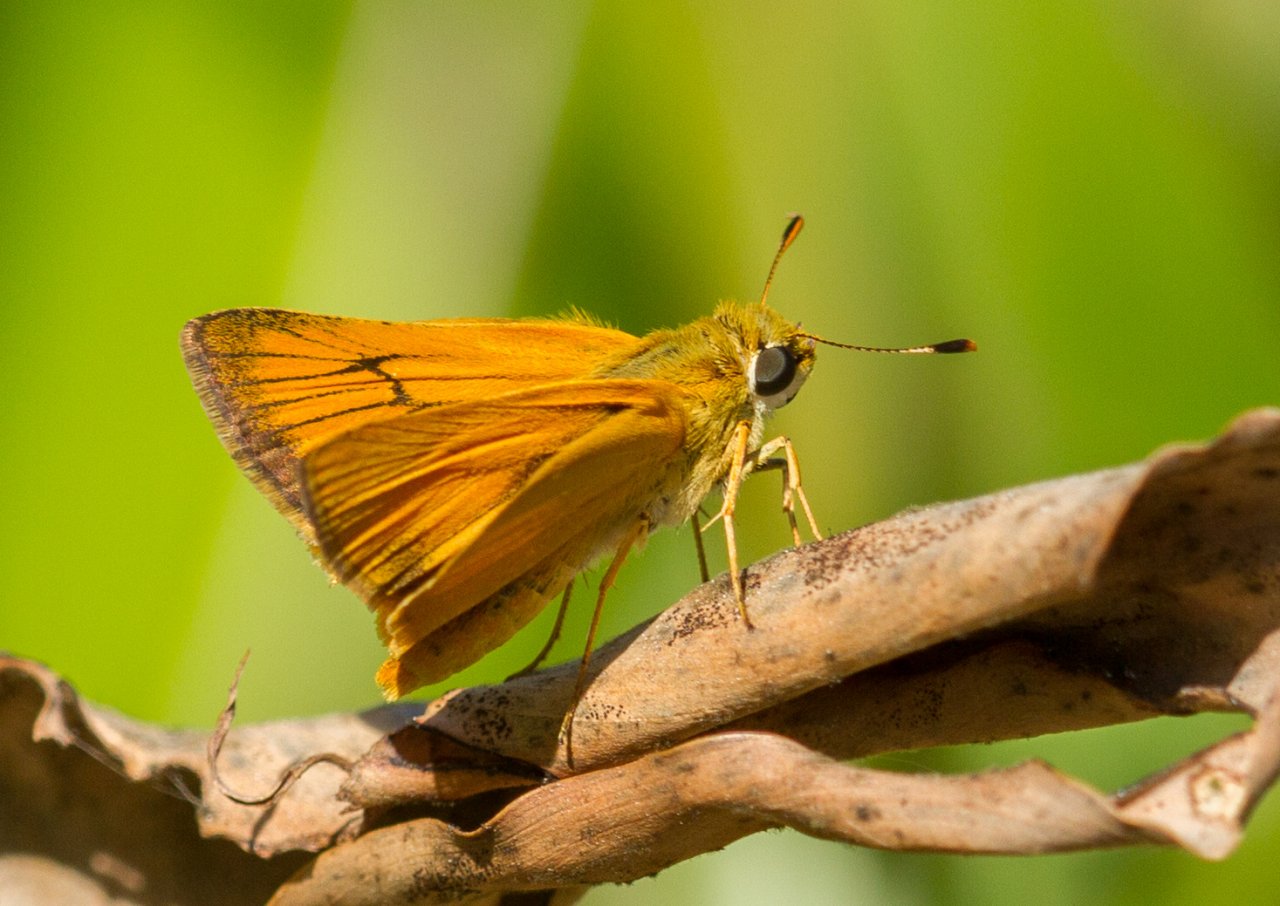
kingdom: Animalia
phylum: Arthropoda
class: Insecta
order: Lepidoptera
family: Hesperiidae
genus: Atrytone
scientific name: Atrytone delaware
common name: Delaware Skipper
